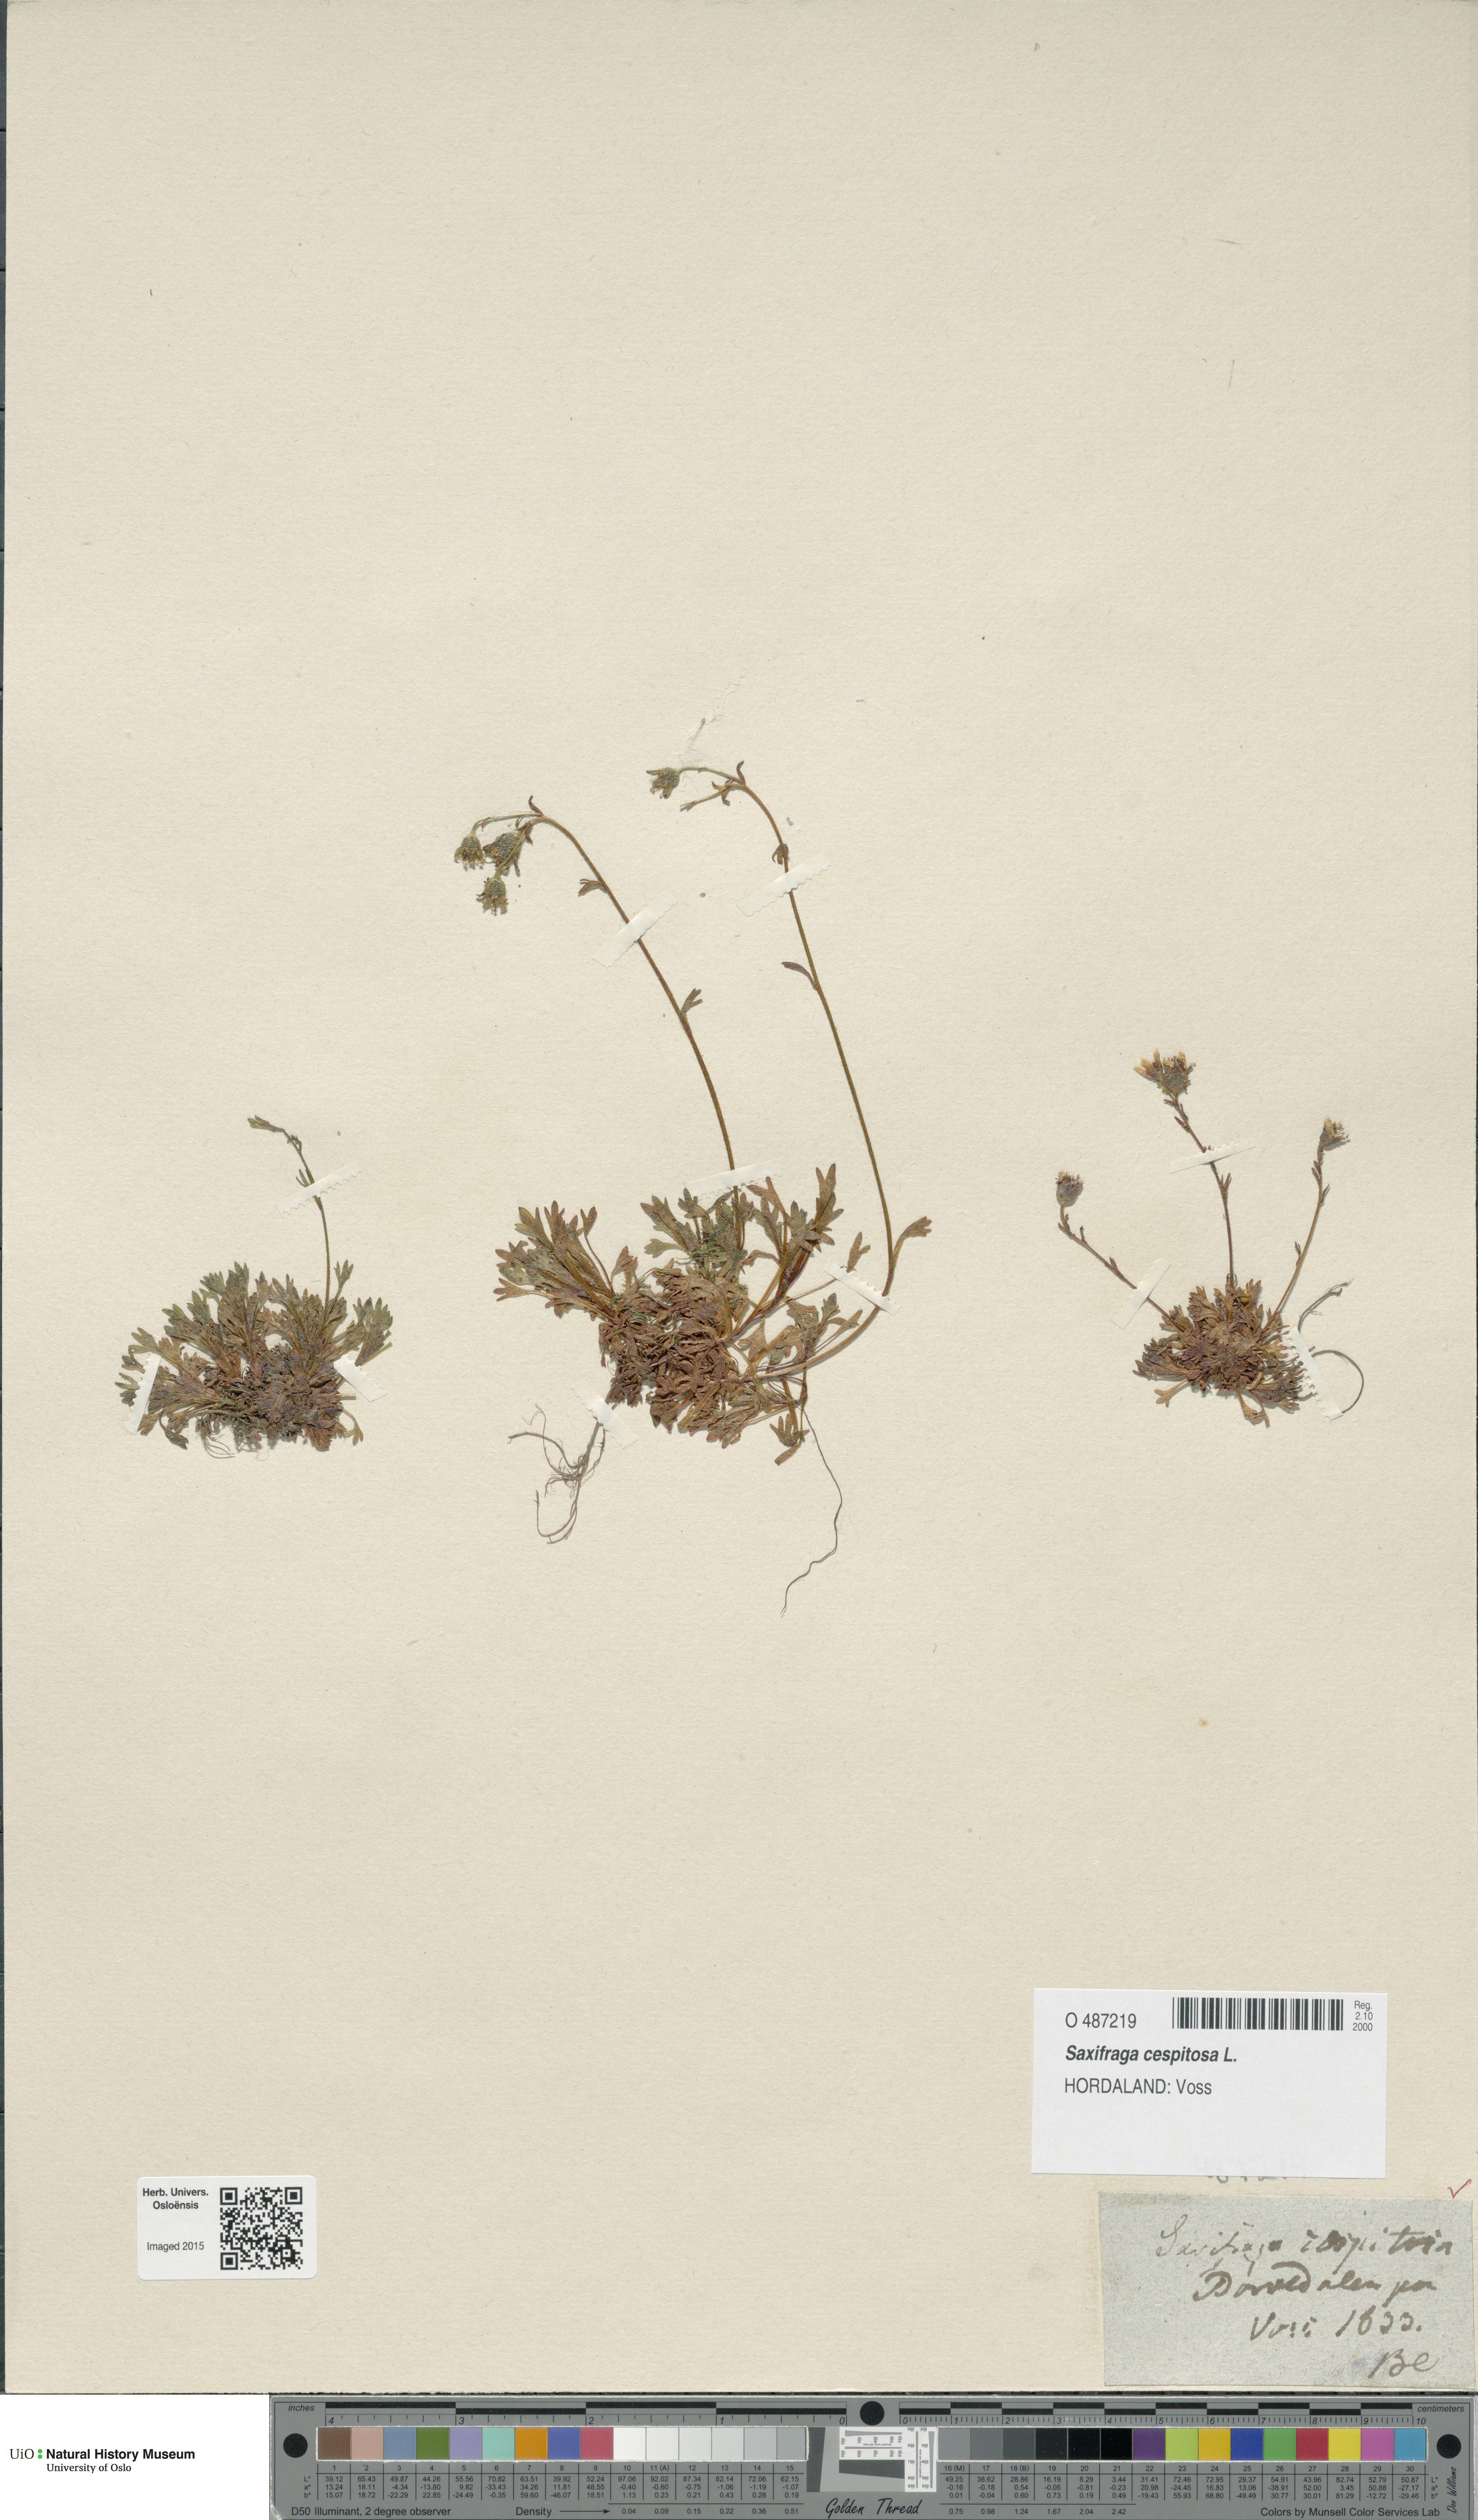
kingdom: Plantae
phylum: Tracheophyta
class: Magnoliopsida
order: Saxifragales
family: Saxifragaceae
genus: Saxifraga
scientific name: Saxifraga cespitosa
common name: Tufted saxifrage
